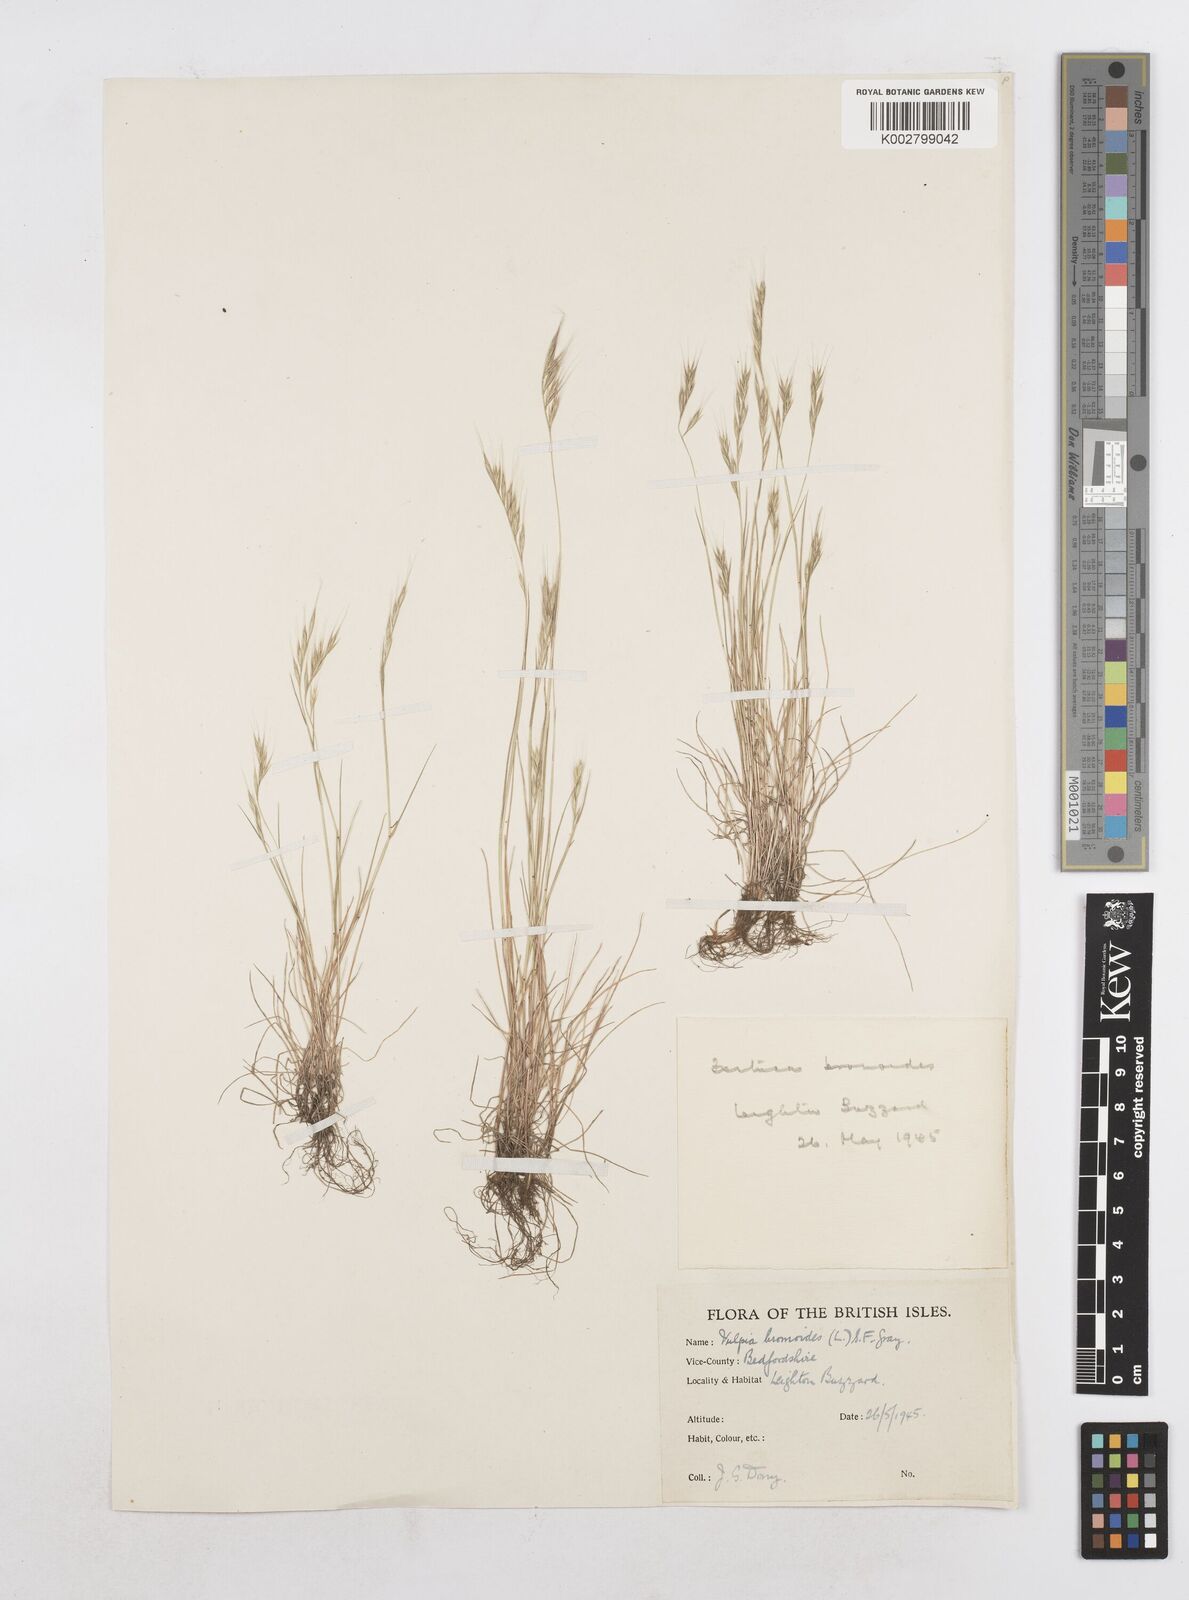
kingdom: Plantae
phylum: Tracheophyta
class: Liliopsida
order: Poales
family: Poaceae
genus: Festuca
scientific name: Festuca bromoides
